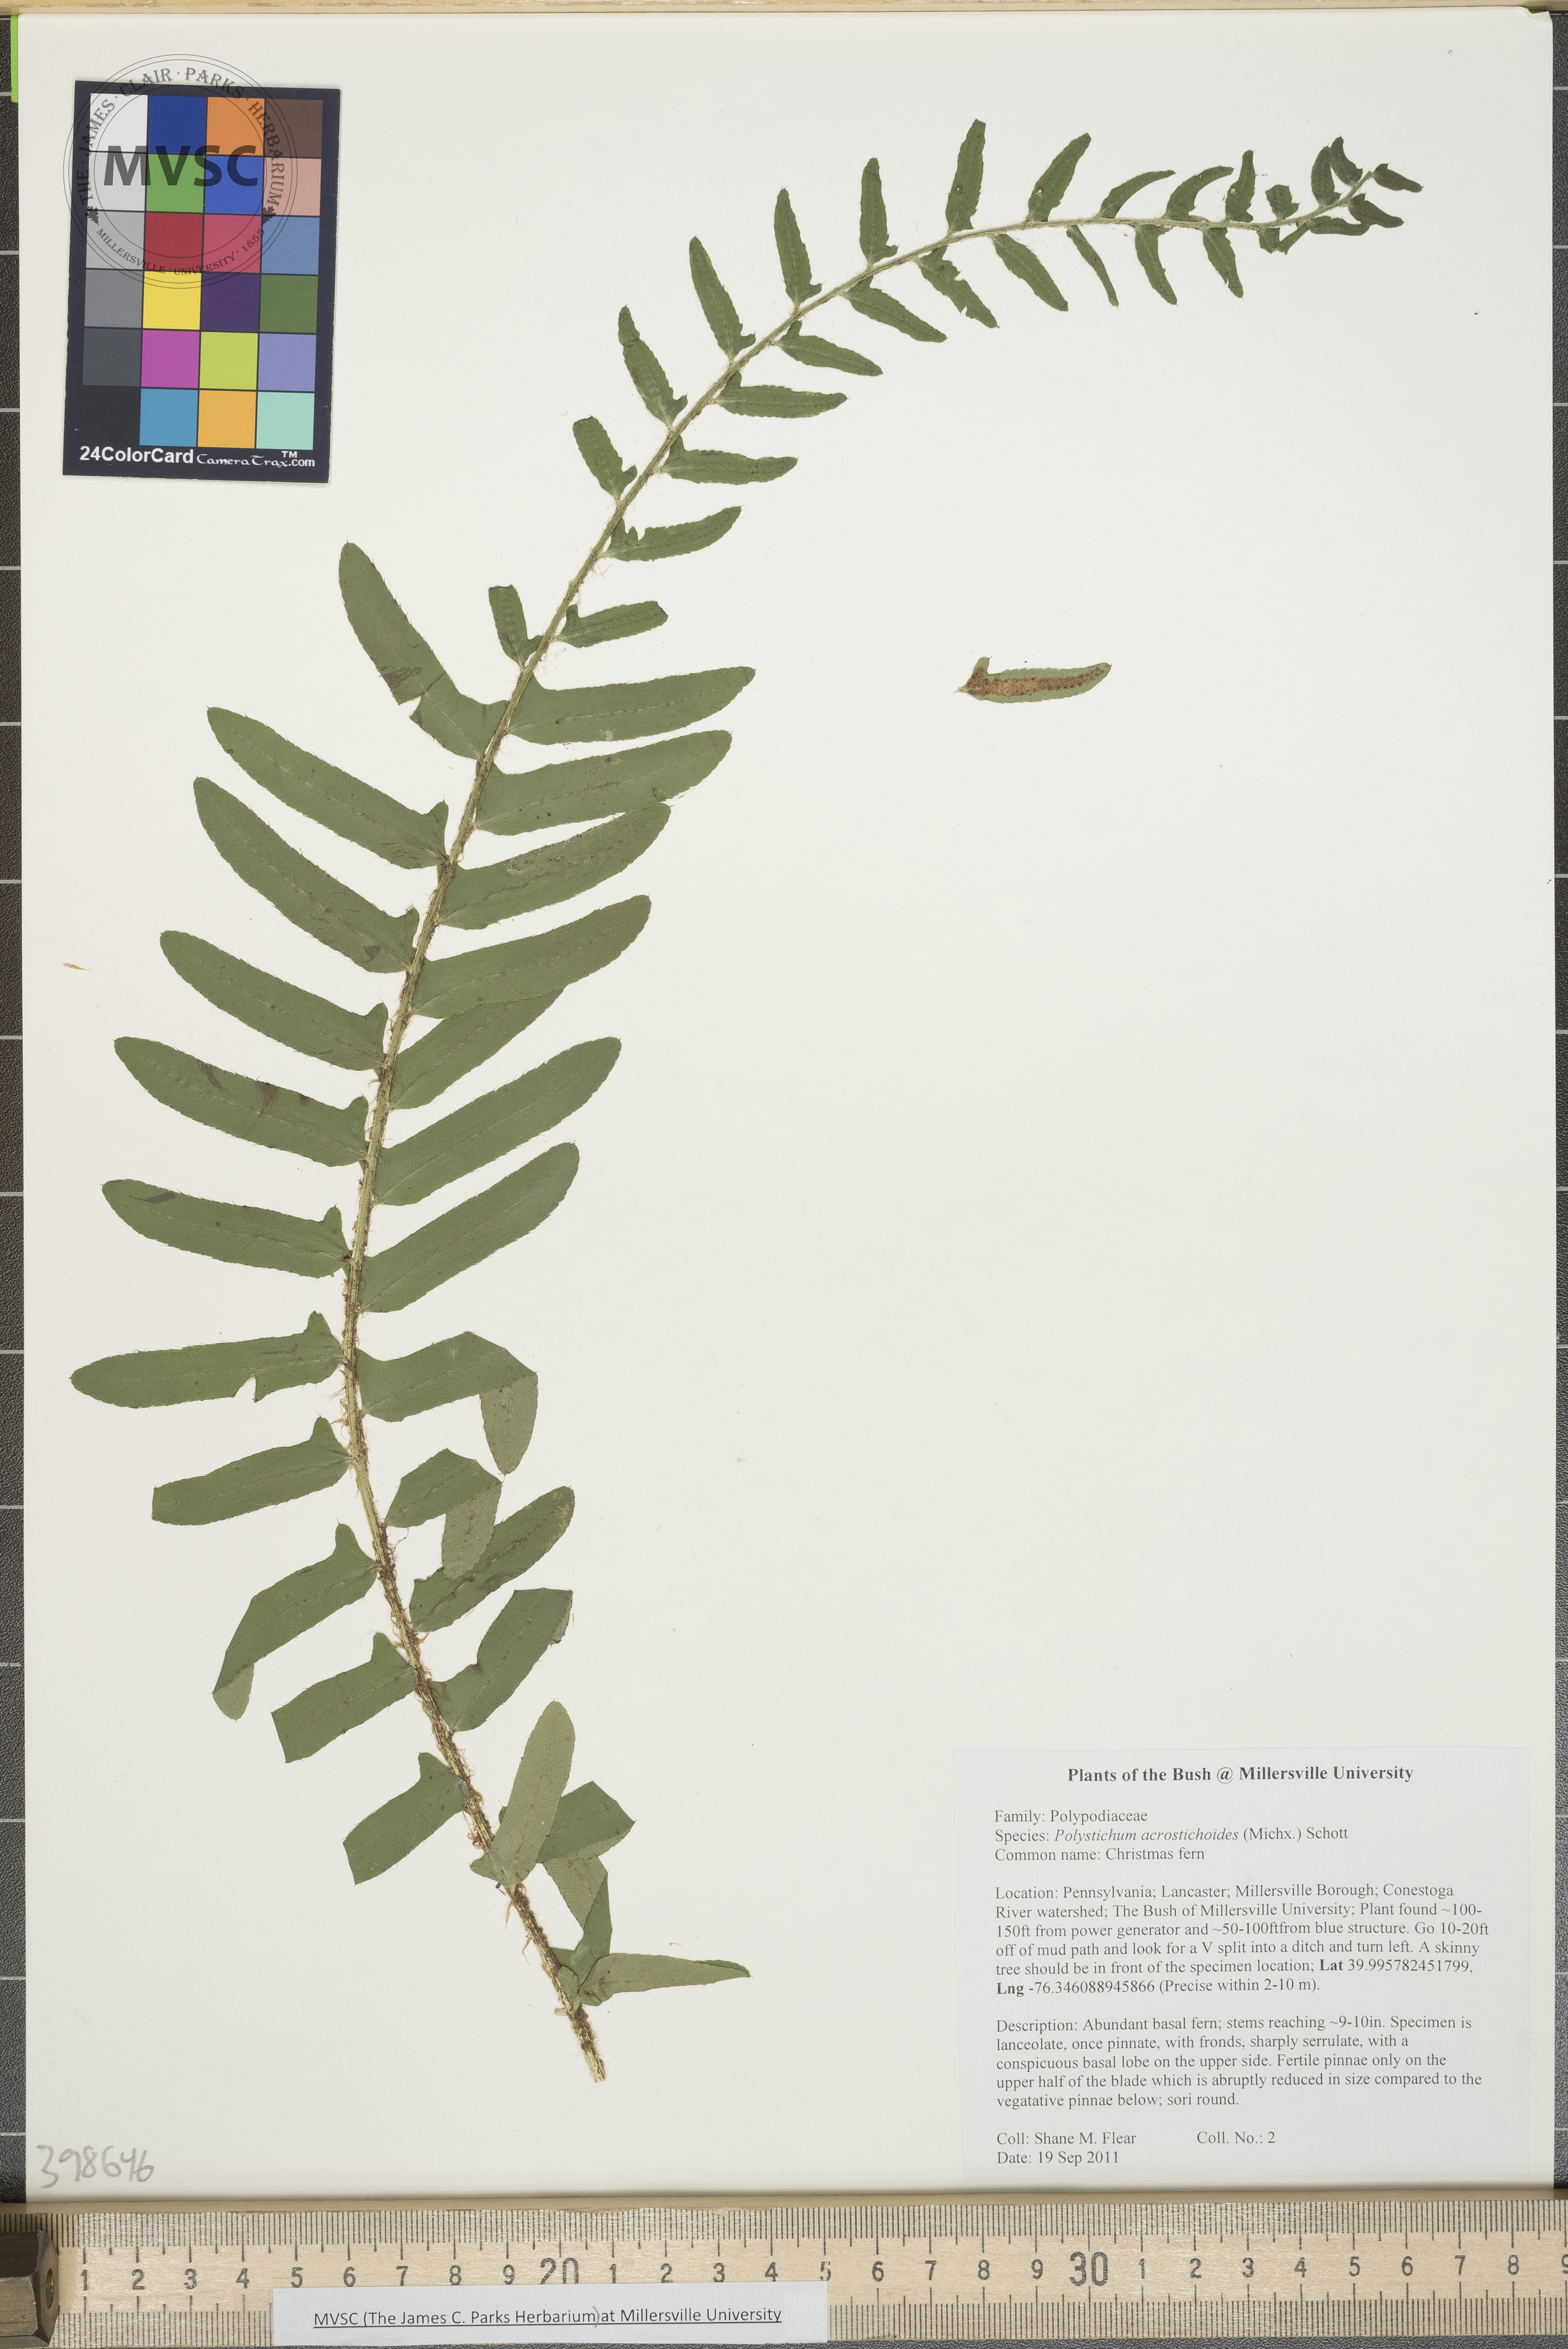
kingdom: Plantae
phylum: Tracheophyta
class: Polypodiopsida
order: Polypodiales
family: Dryopteridaceae
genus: Polystichum
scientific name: Polystichum acrostichoides
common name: Christmas fern
